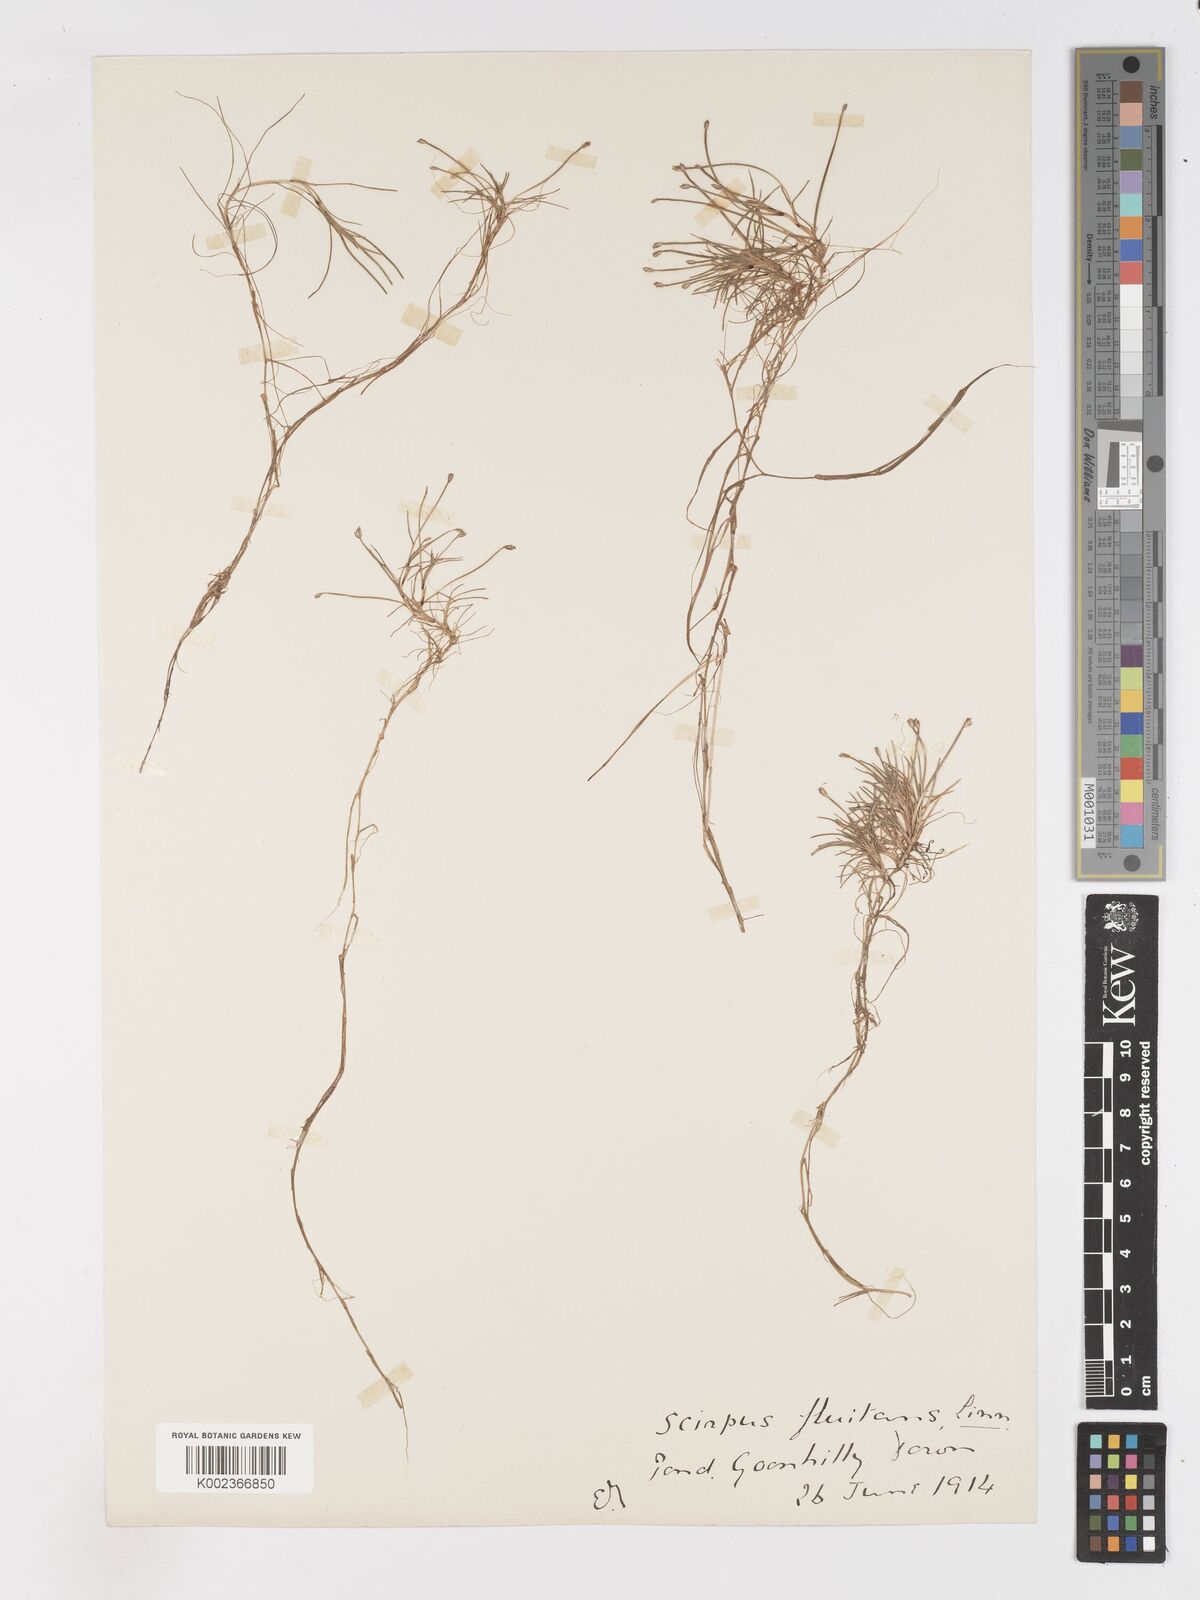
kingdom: Plantae
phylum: Tracheophyta
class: Liliopsida
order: Poales
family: Cyperaceae
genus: Isolepis
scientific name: Isolepis fluitans
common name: Floating club-rush
